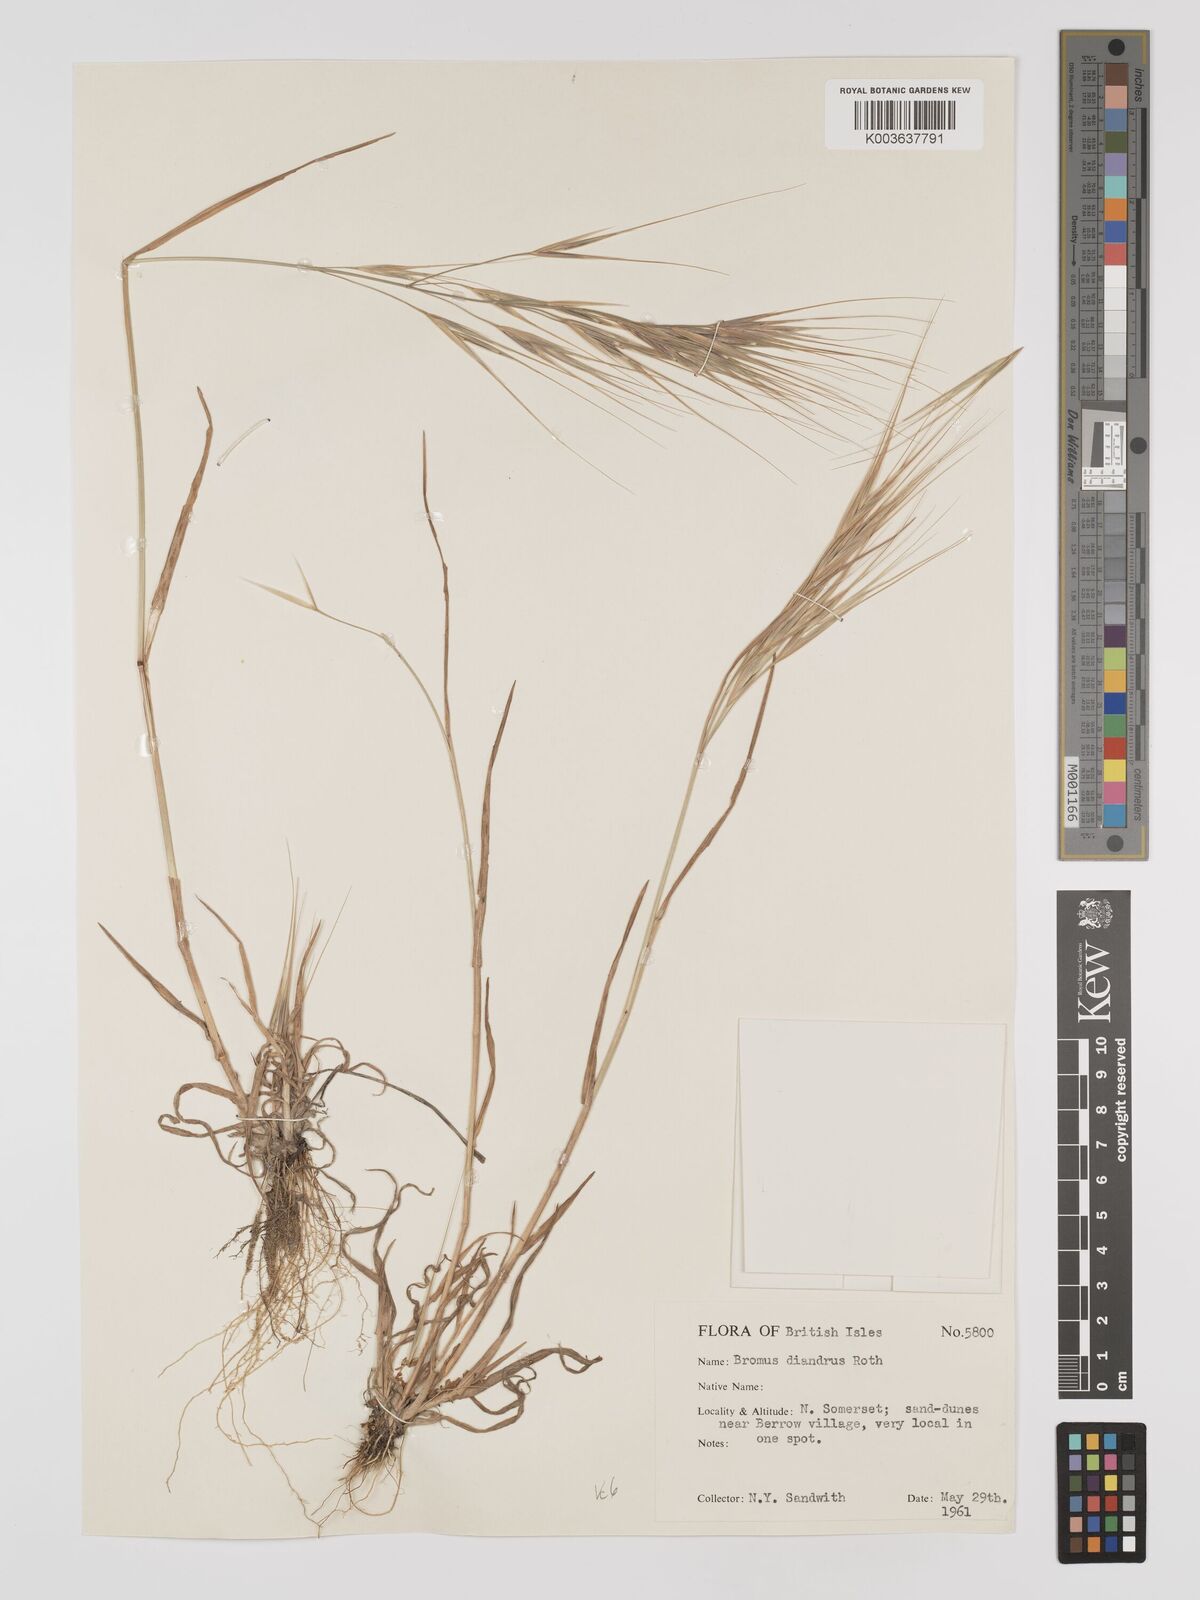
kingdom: Plantae
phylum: Tracheophyta
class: Liliopsida
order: Poales
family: Poaceae
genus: Bromus
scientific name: Bromus
